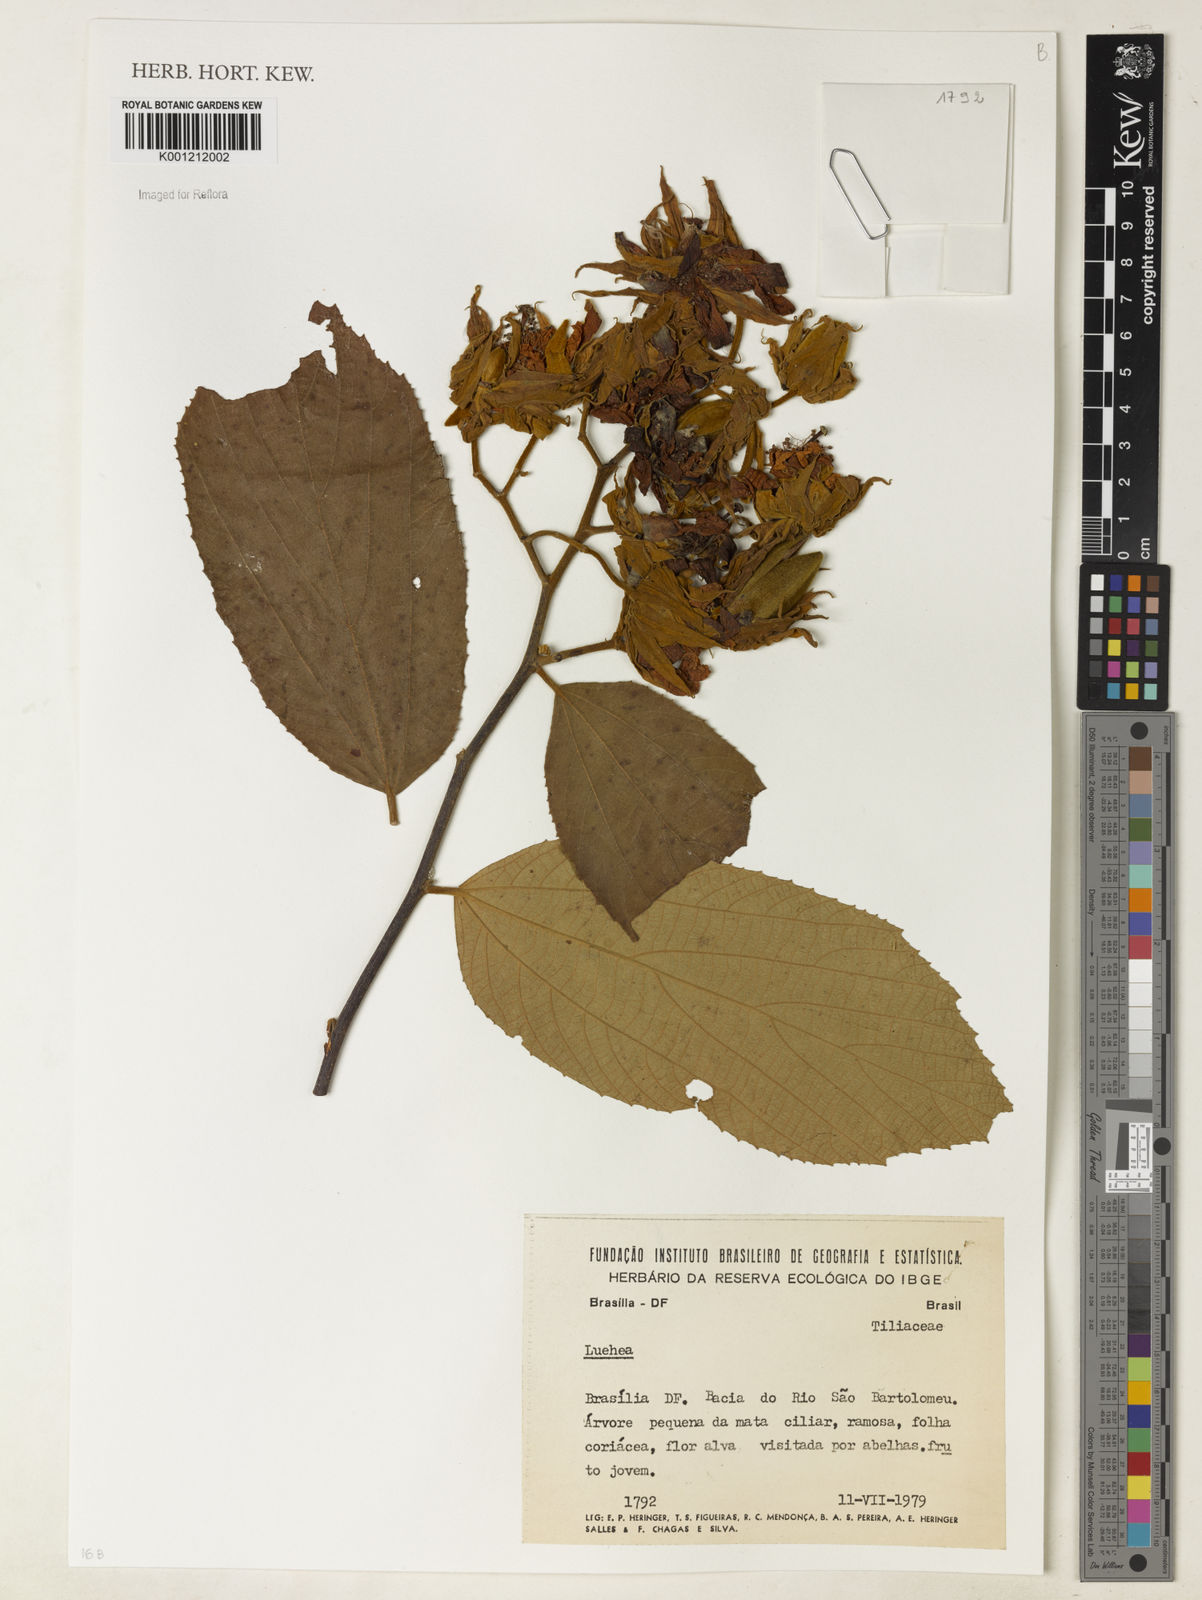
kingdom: Plantae
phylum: Tracheophyta
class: Magnoliopsida
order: Malvales
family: Malvaceae
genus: Luehea
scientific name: Luehea
